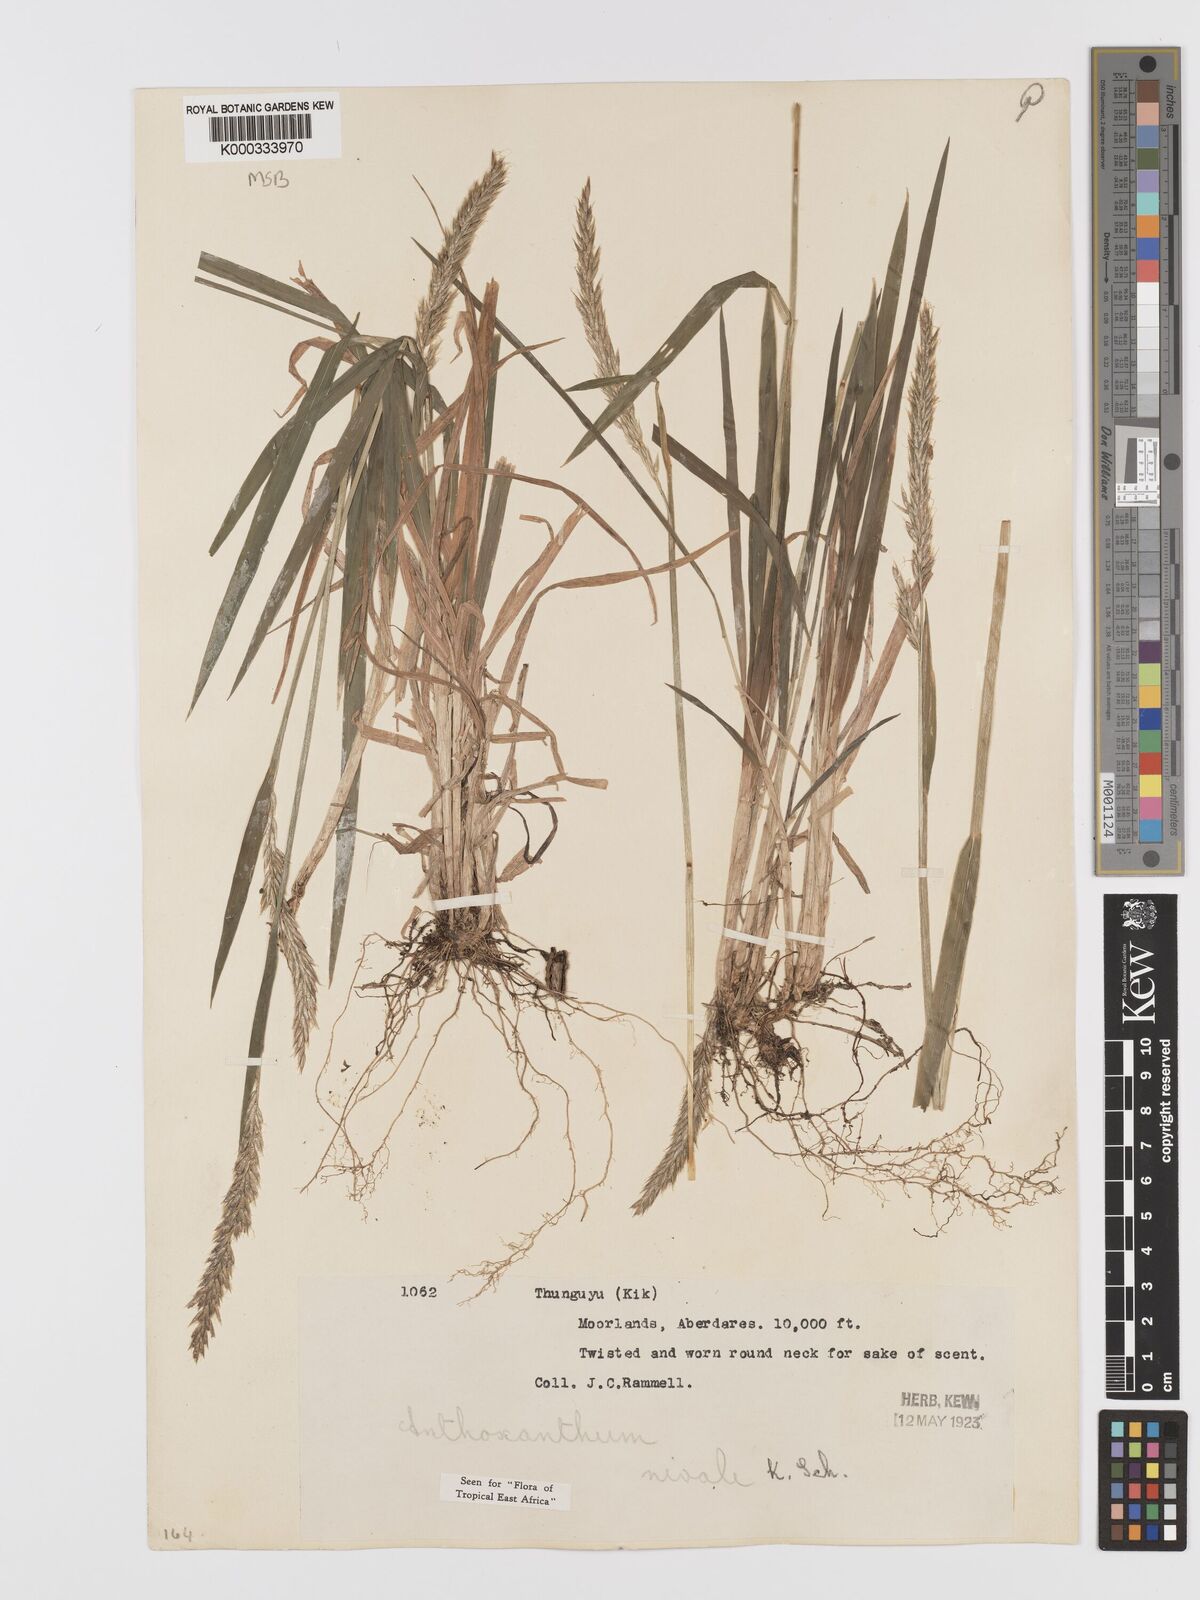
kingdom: Plantae
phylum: Tracheophyta
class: Liliopsida
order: Poales
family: Poaceae
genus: Anthoxanthum
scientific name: Anthoxanthum
